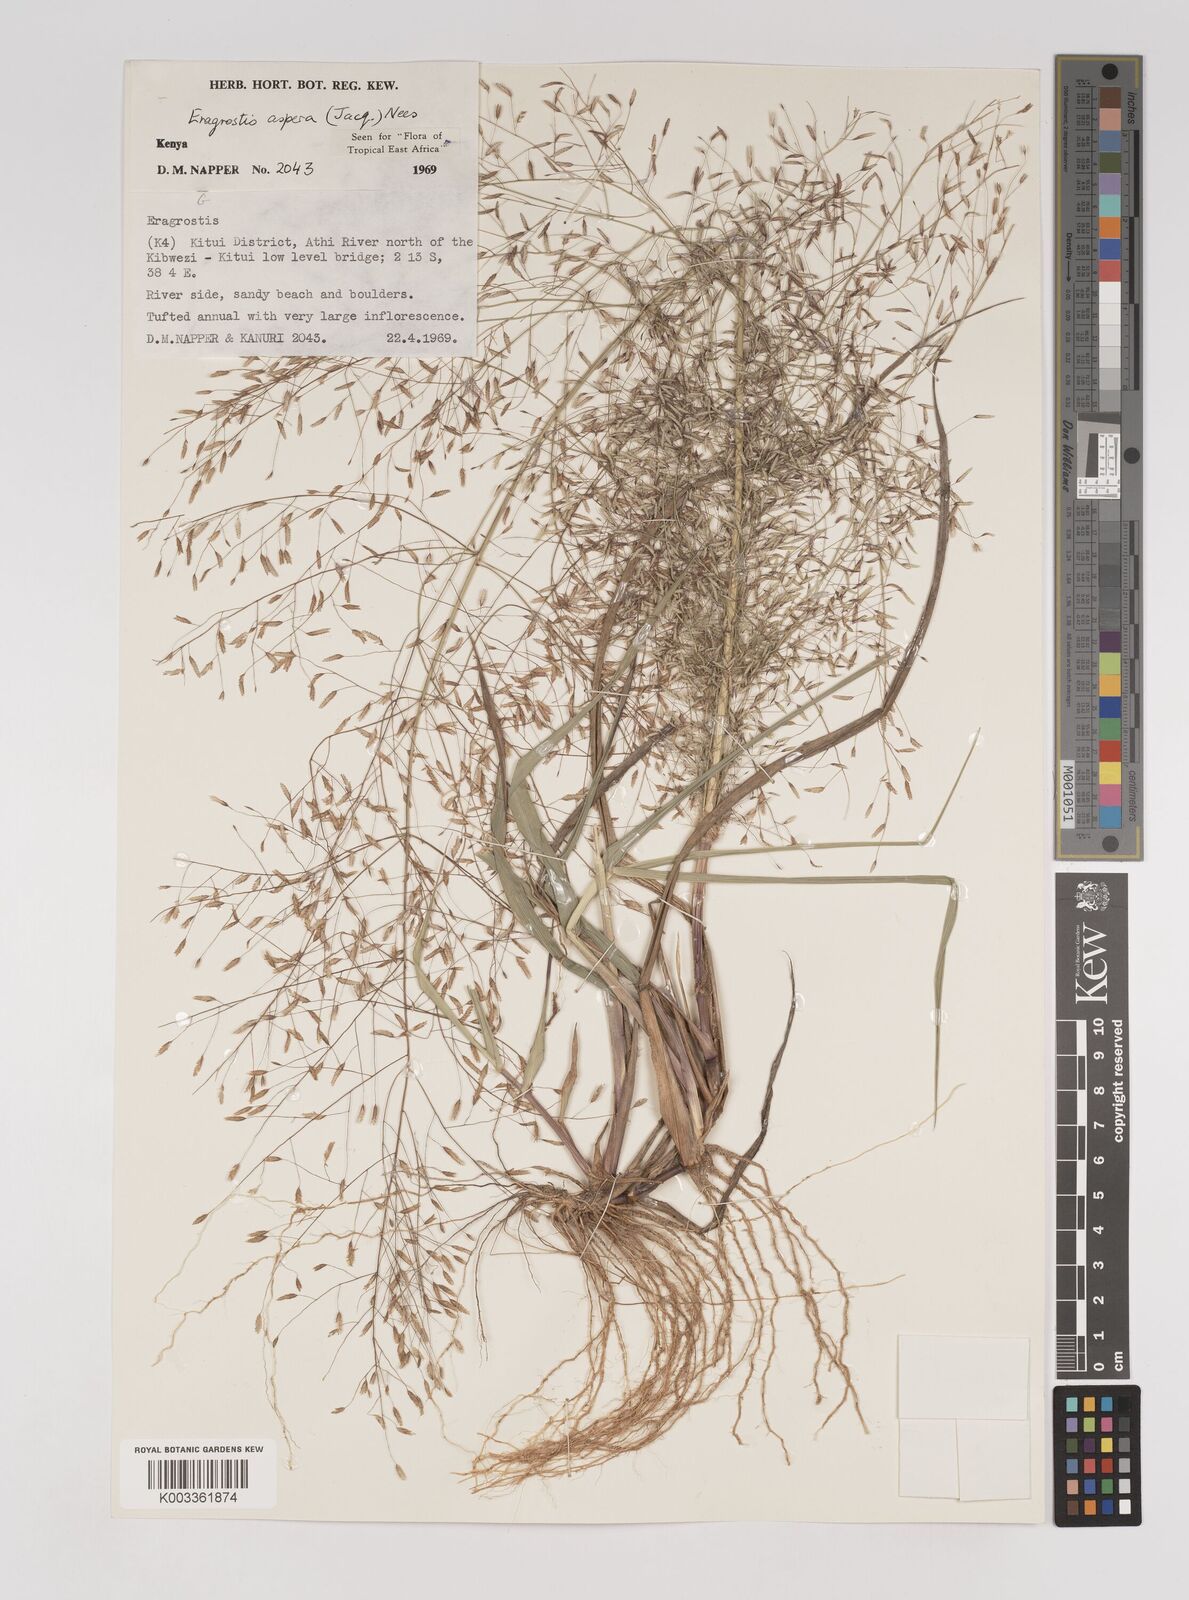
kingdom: Plantae
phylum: Tracheophyta
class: Liliopsida
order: Poales
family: Poaceae
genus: Eragrostis
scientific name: Eragrostis aspera
